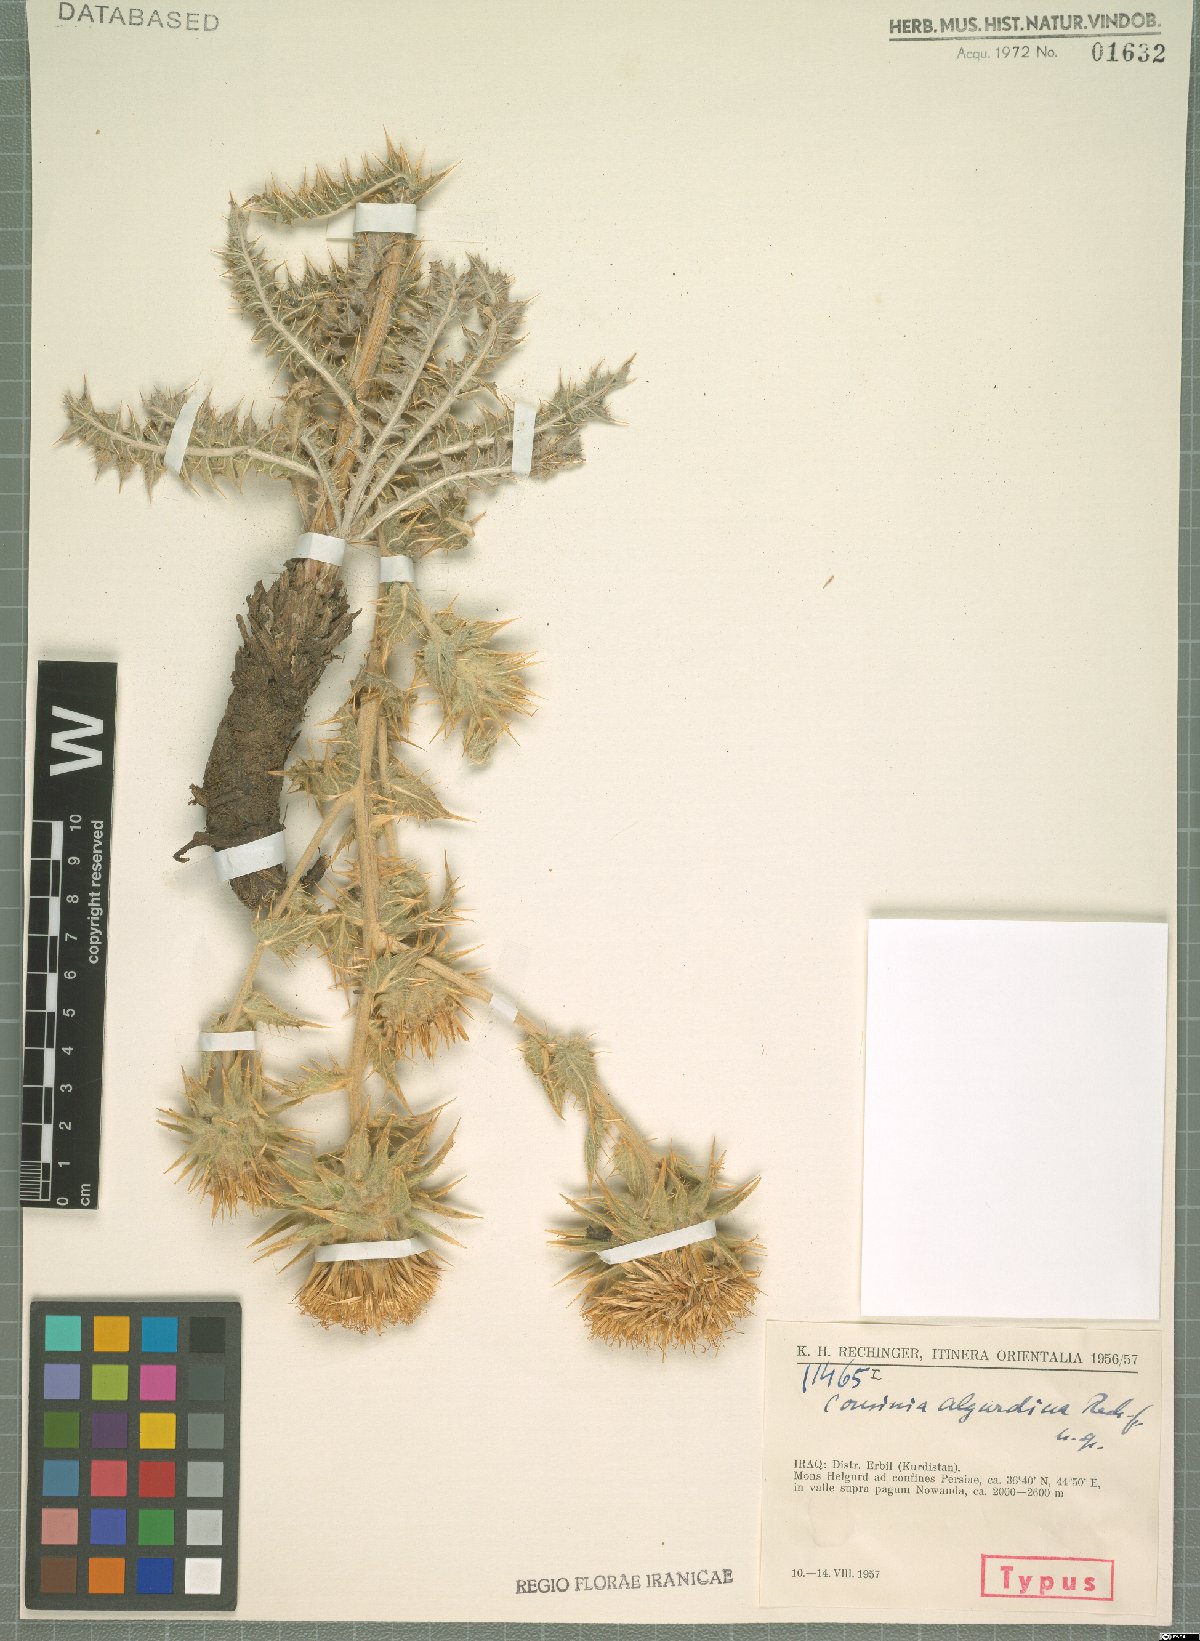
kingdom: Plantae
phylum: Tracheophyta
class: Magnoliopsida
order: Asterales
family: Asteraceae
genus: Cousinia
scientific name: Cousinia algurdina
